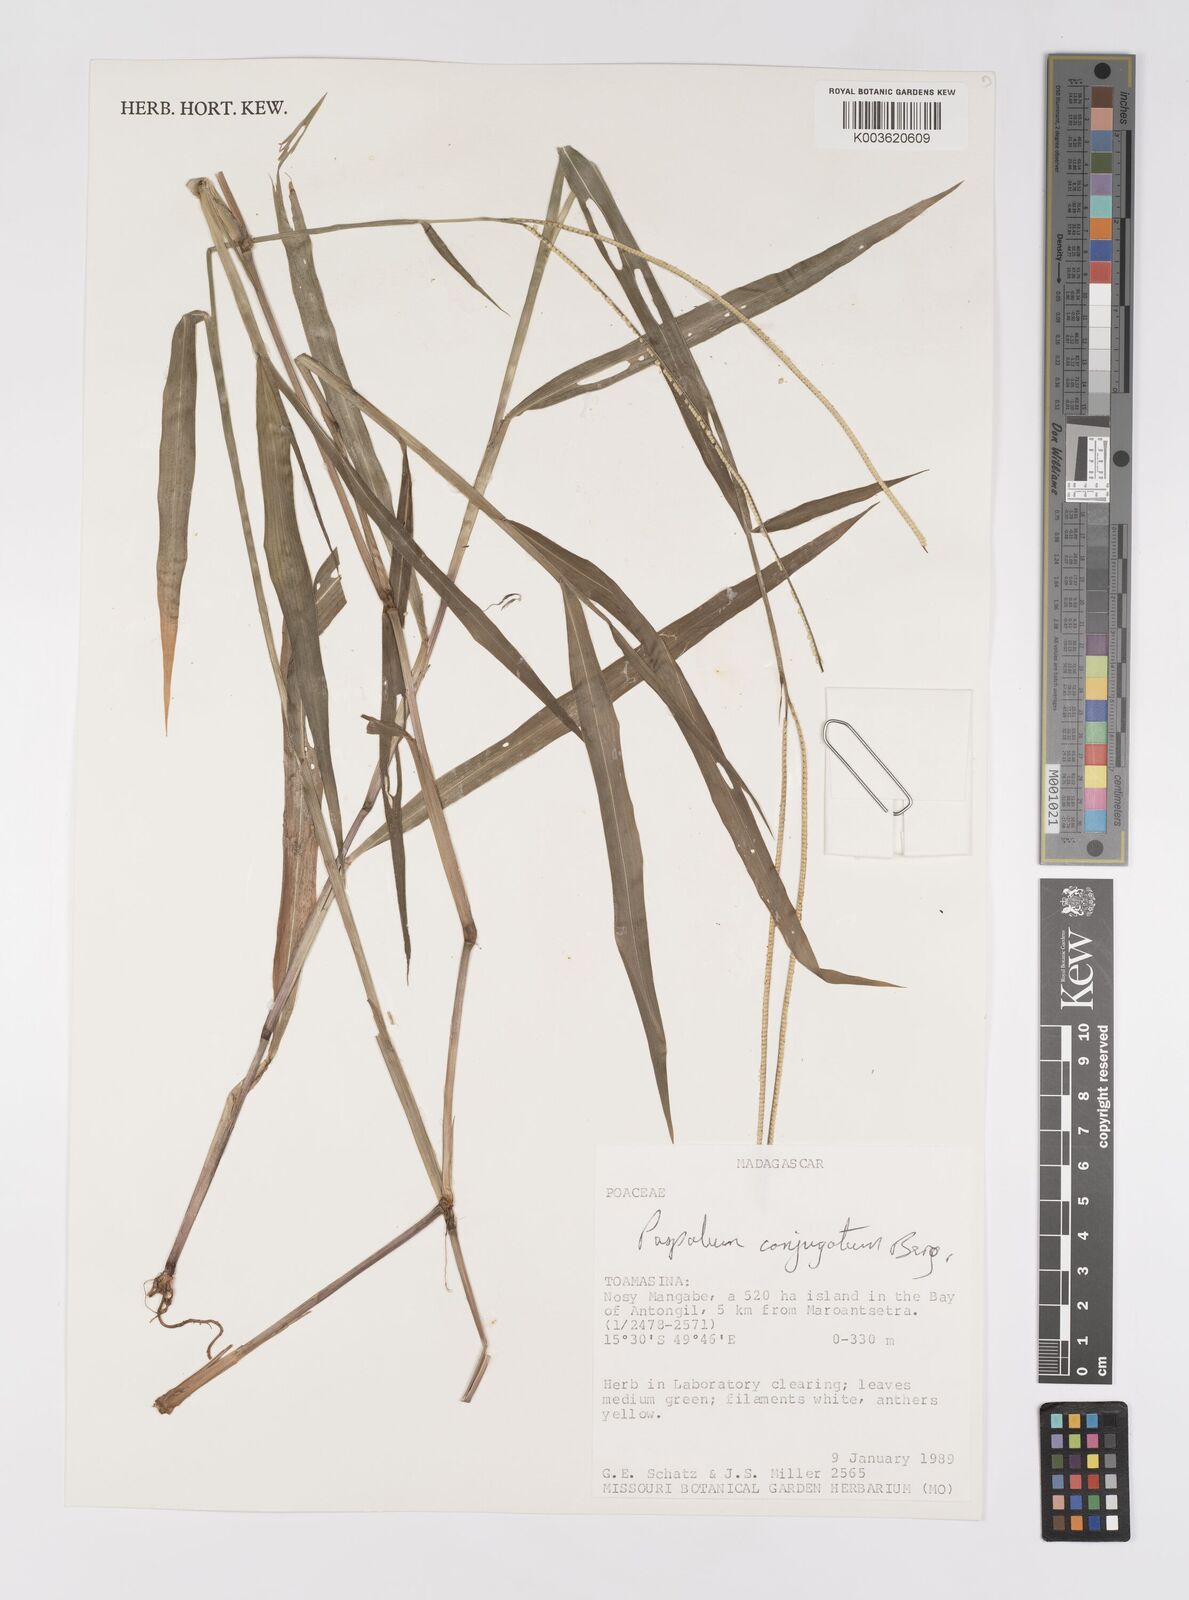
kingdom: Plantae
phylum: Tracheophyta
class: Liliopsida
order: Poales
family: Poaceae
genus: Paspalum
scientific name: Paspalum conjugatum
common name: Hilograss
